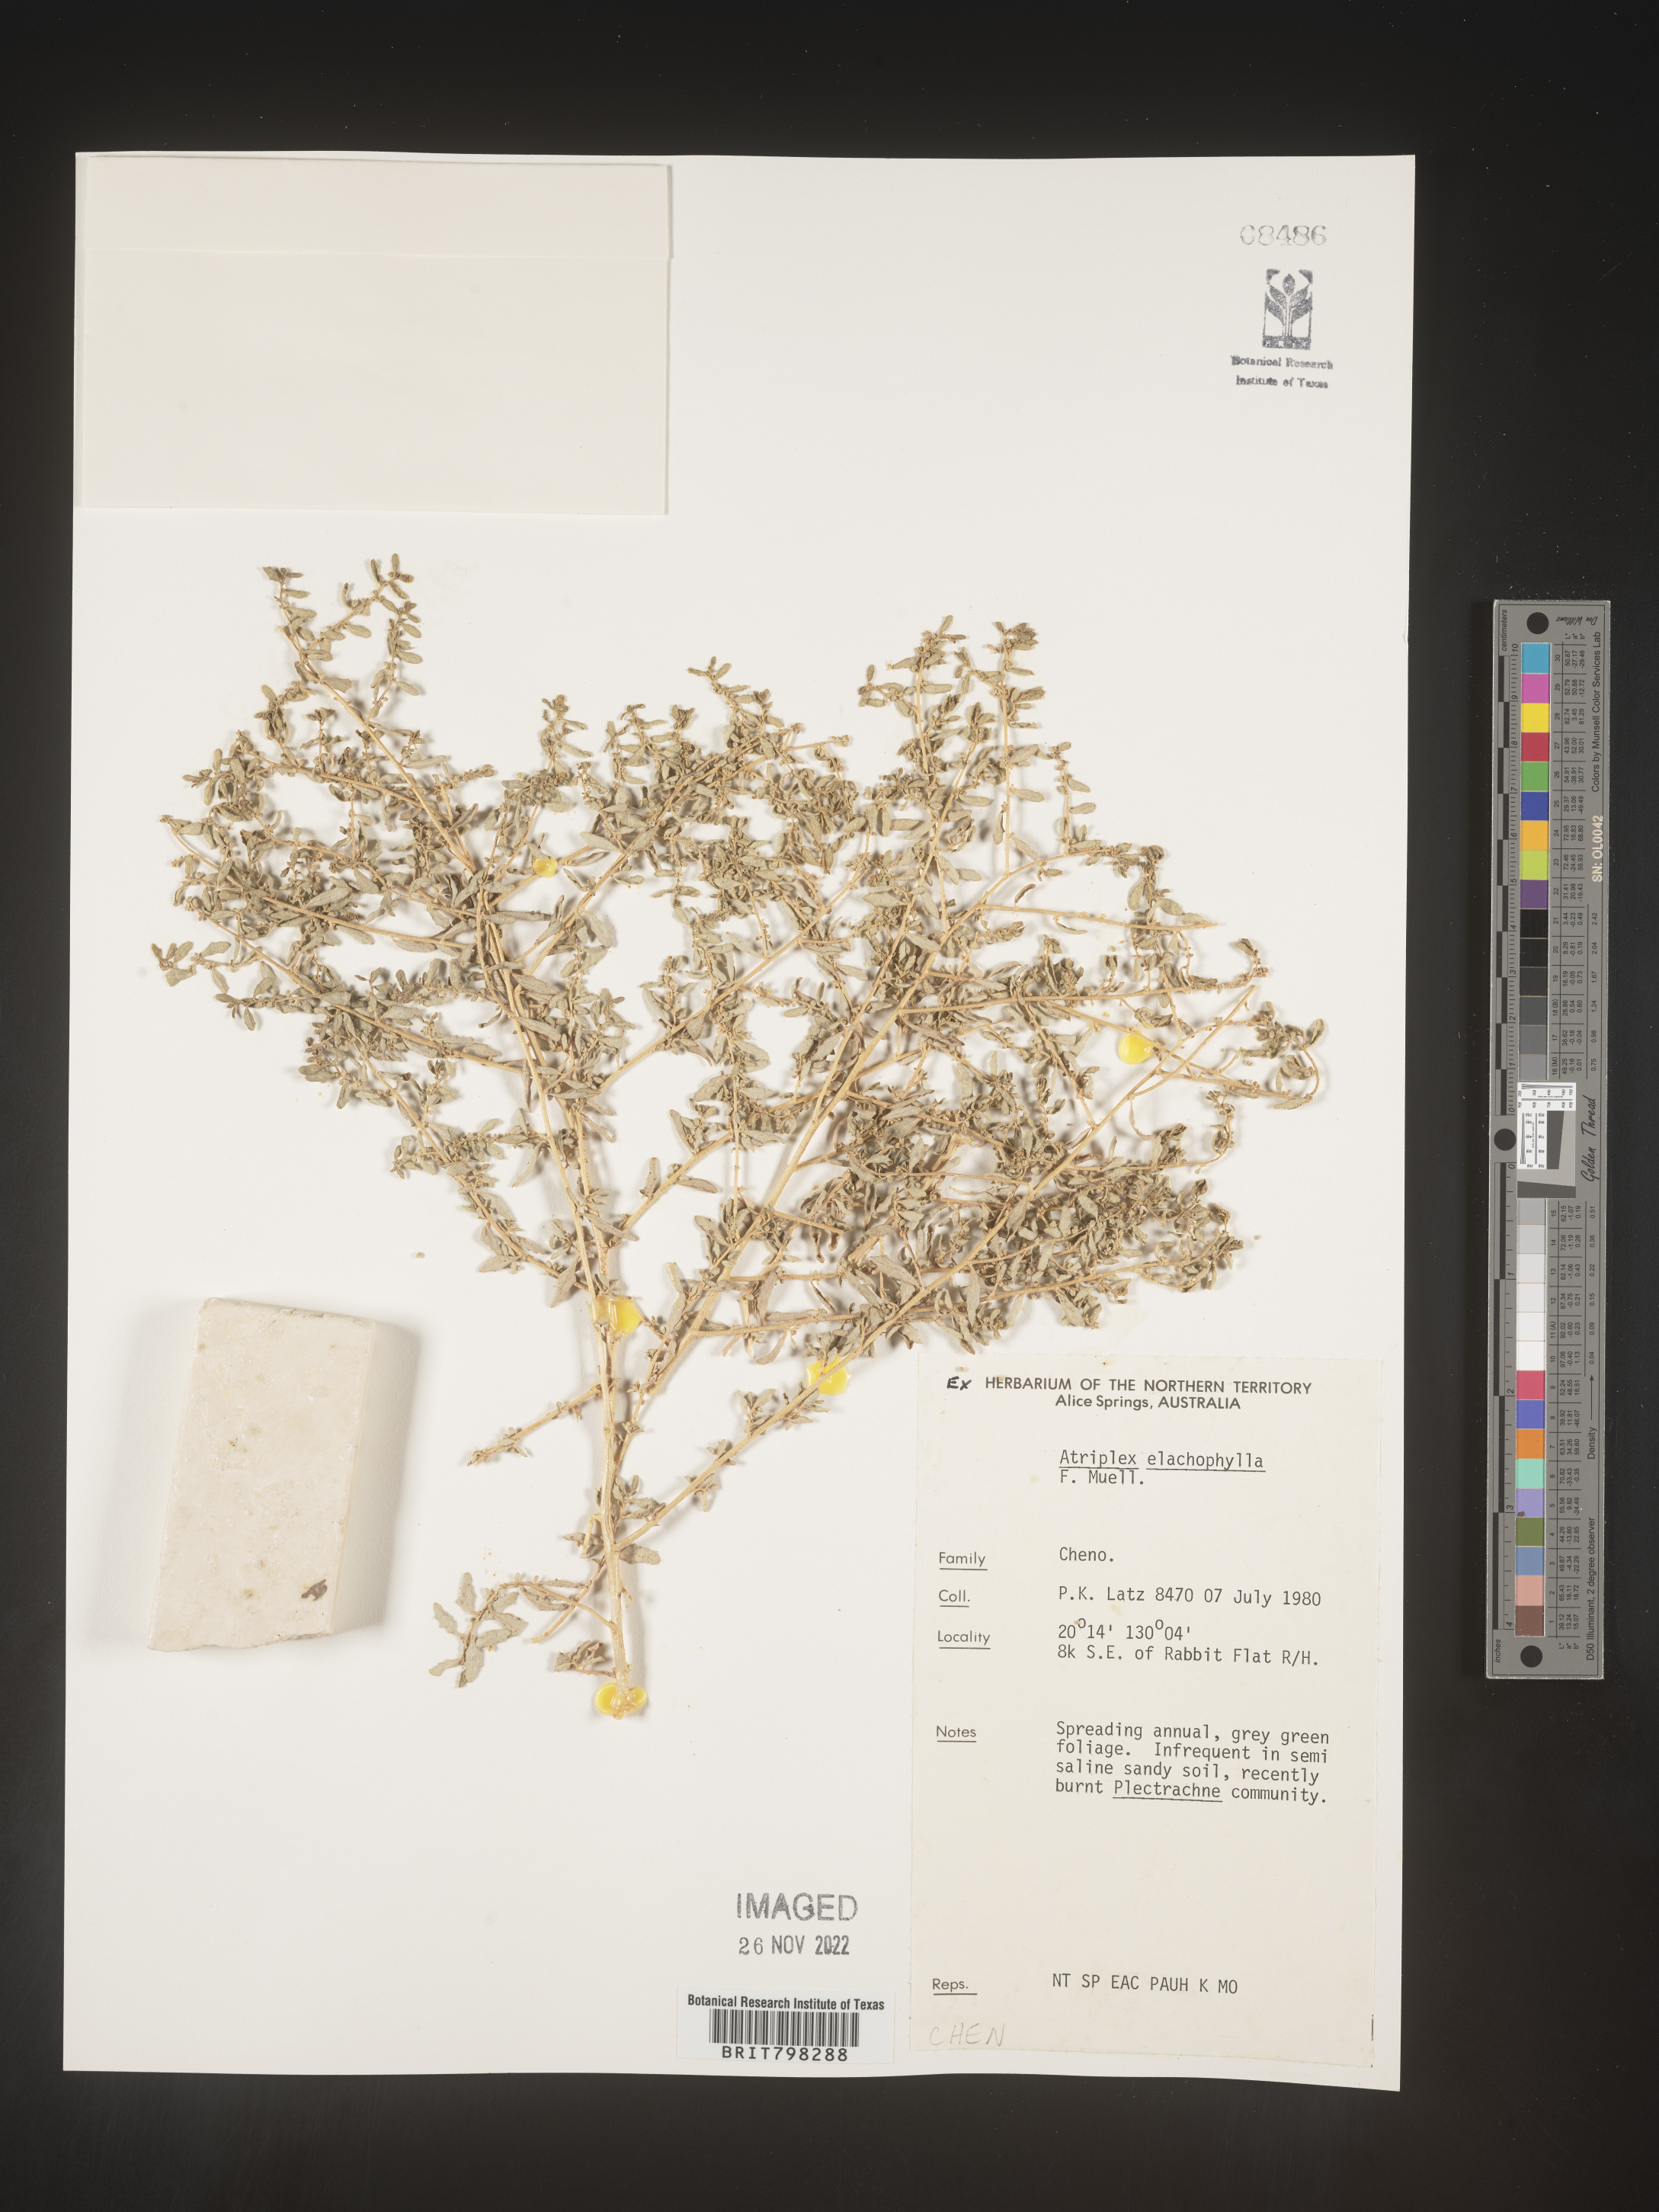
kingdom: Plantae
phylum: Tracheophyta
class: Magnoliopsida
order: Caryophyllales
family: Amaranthaceae
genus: Atriplex
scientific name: Atriplex
